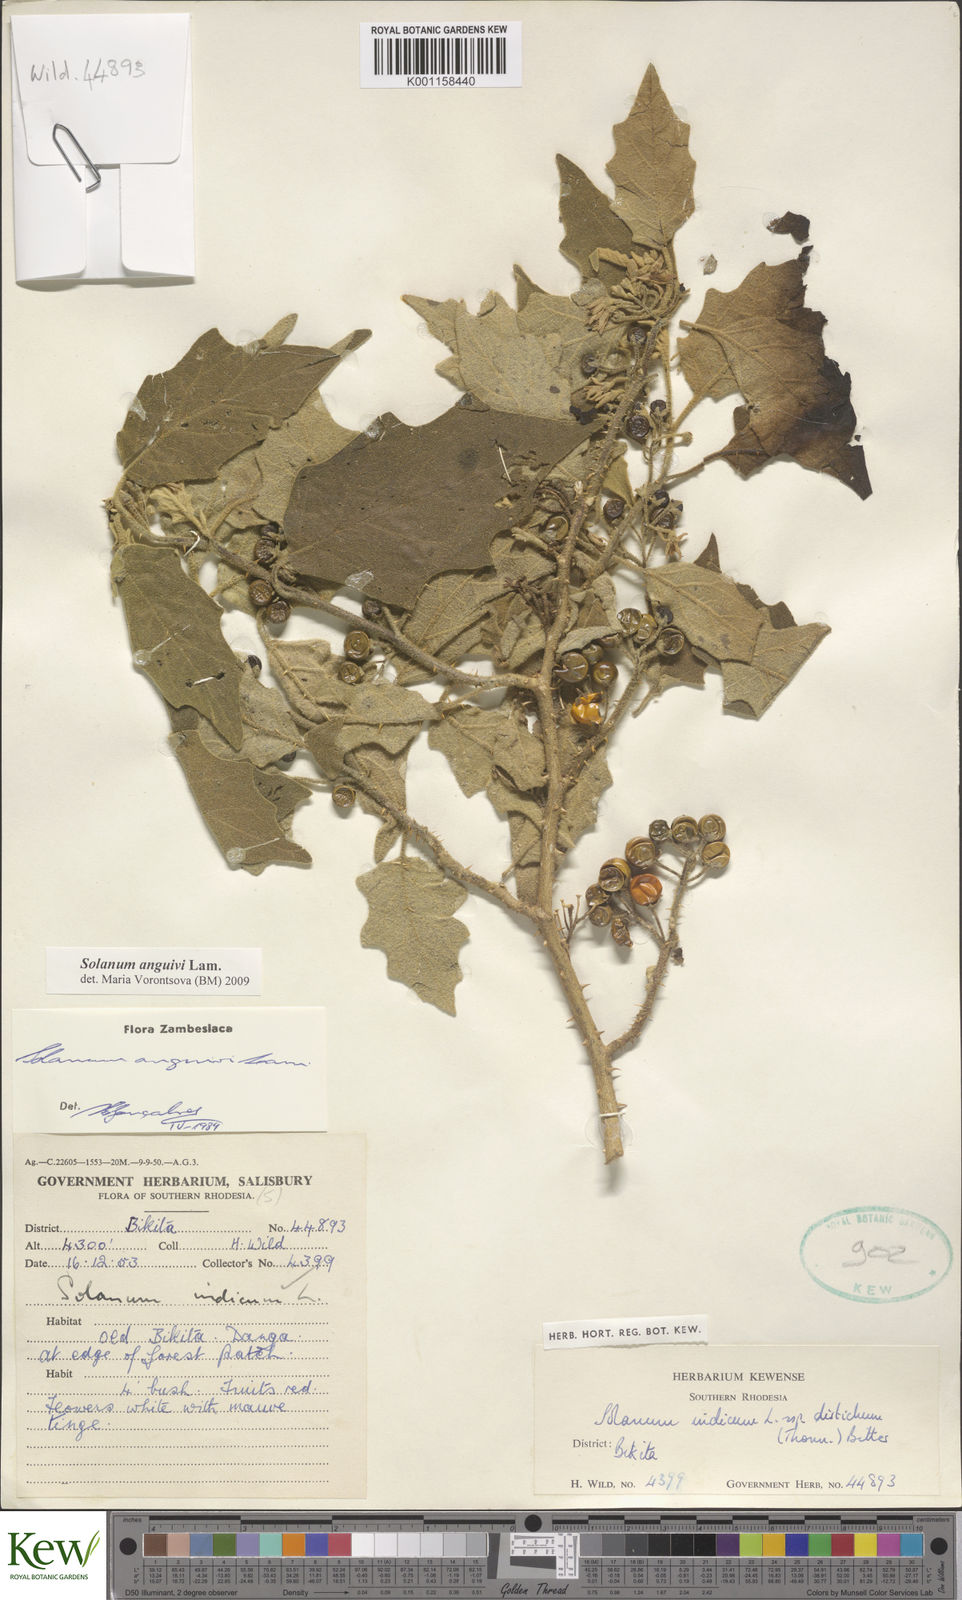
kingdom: Plantae
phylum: Tracheophyta
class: Magnoliopsida
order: Solanales
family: Solanaceae
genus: Solanum
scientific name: Solanum anguivi
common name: Forest bitterberry
